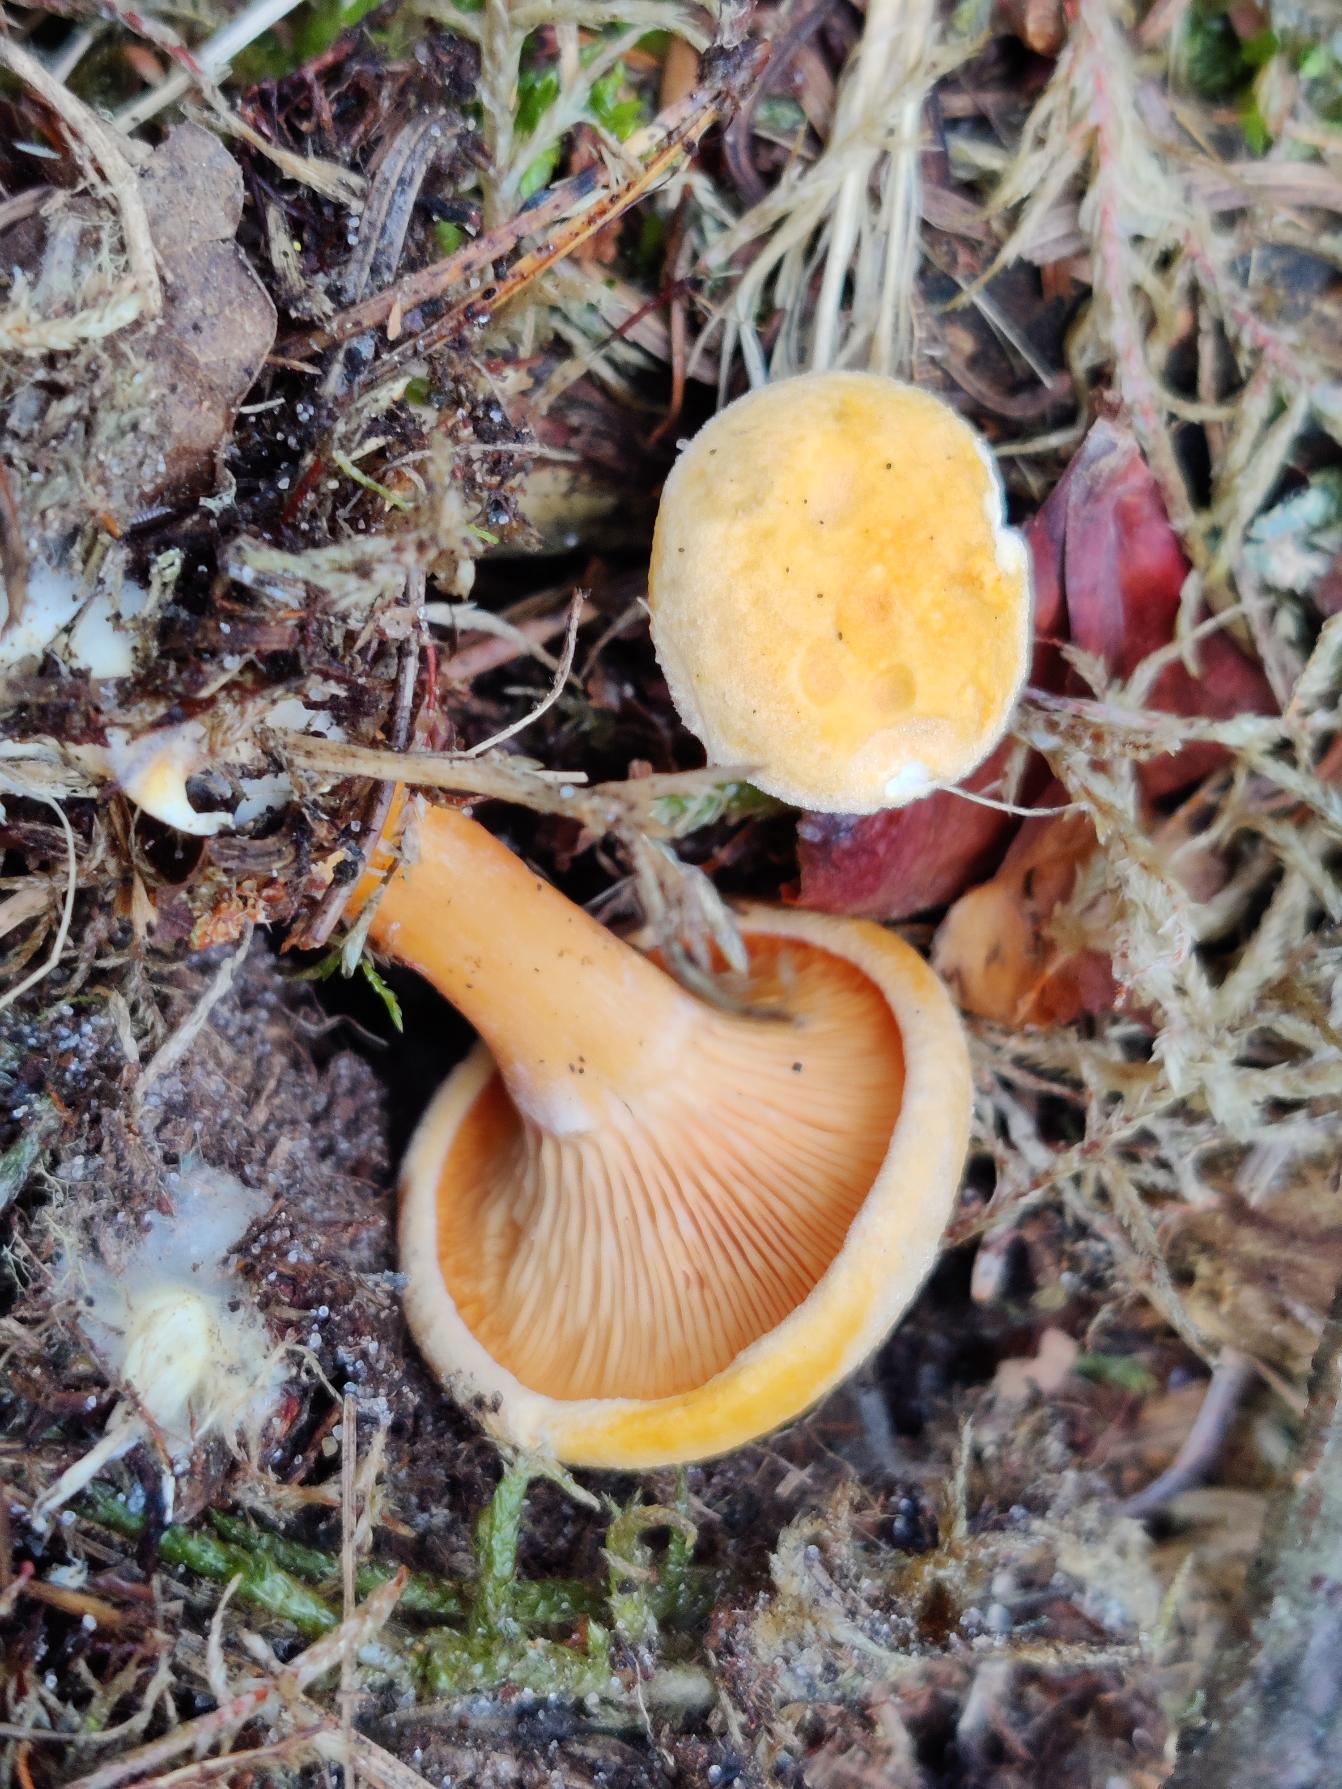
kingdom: Fungi
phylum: Basidiomycota
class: Agaricomycetes
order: Boletales
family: Hygrophoropsidaceae
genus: Hygrophoropsis
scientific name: Hygrophoropsis aurantiaca
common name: Almindelig orangekantarel
